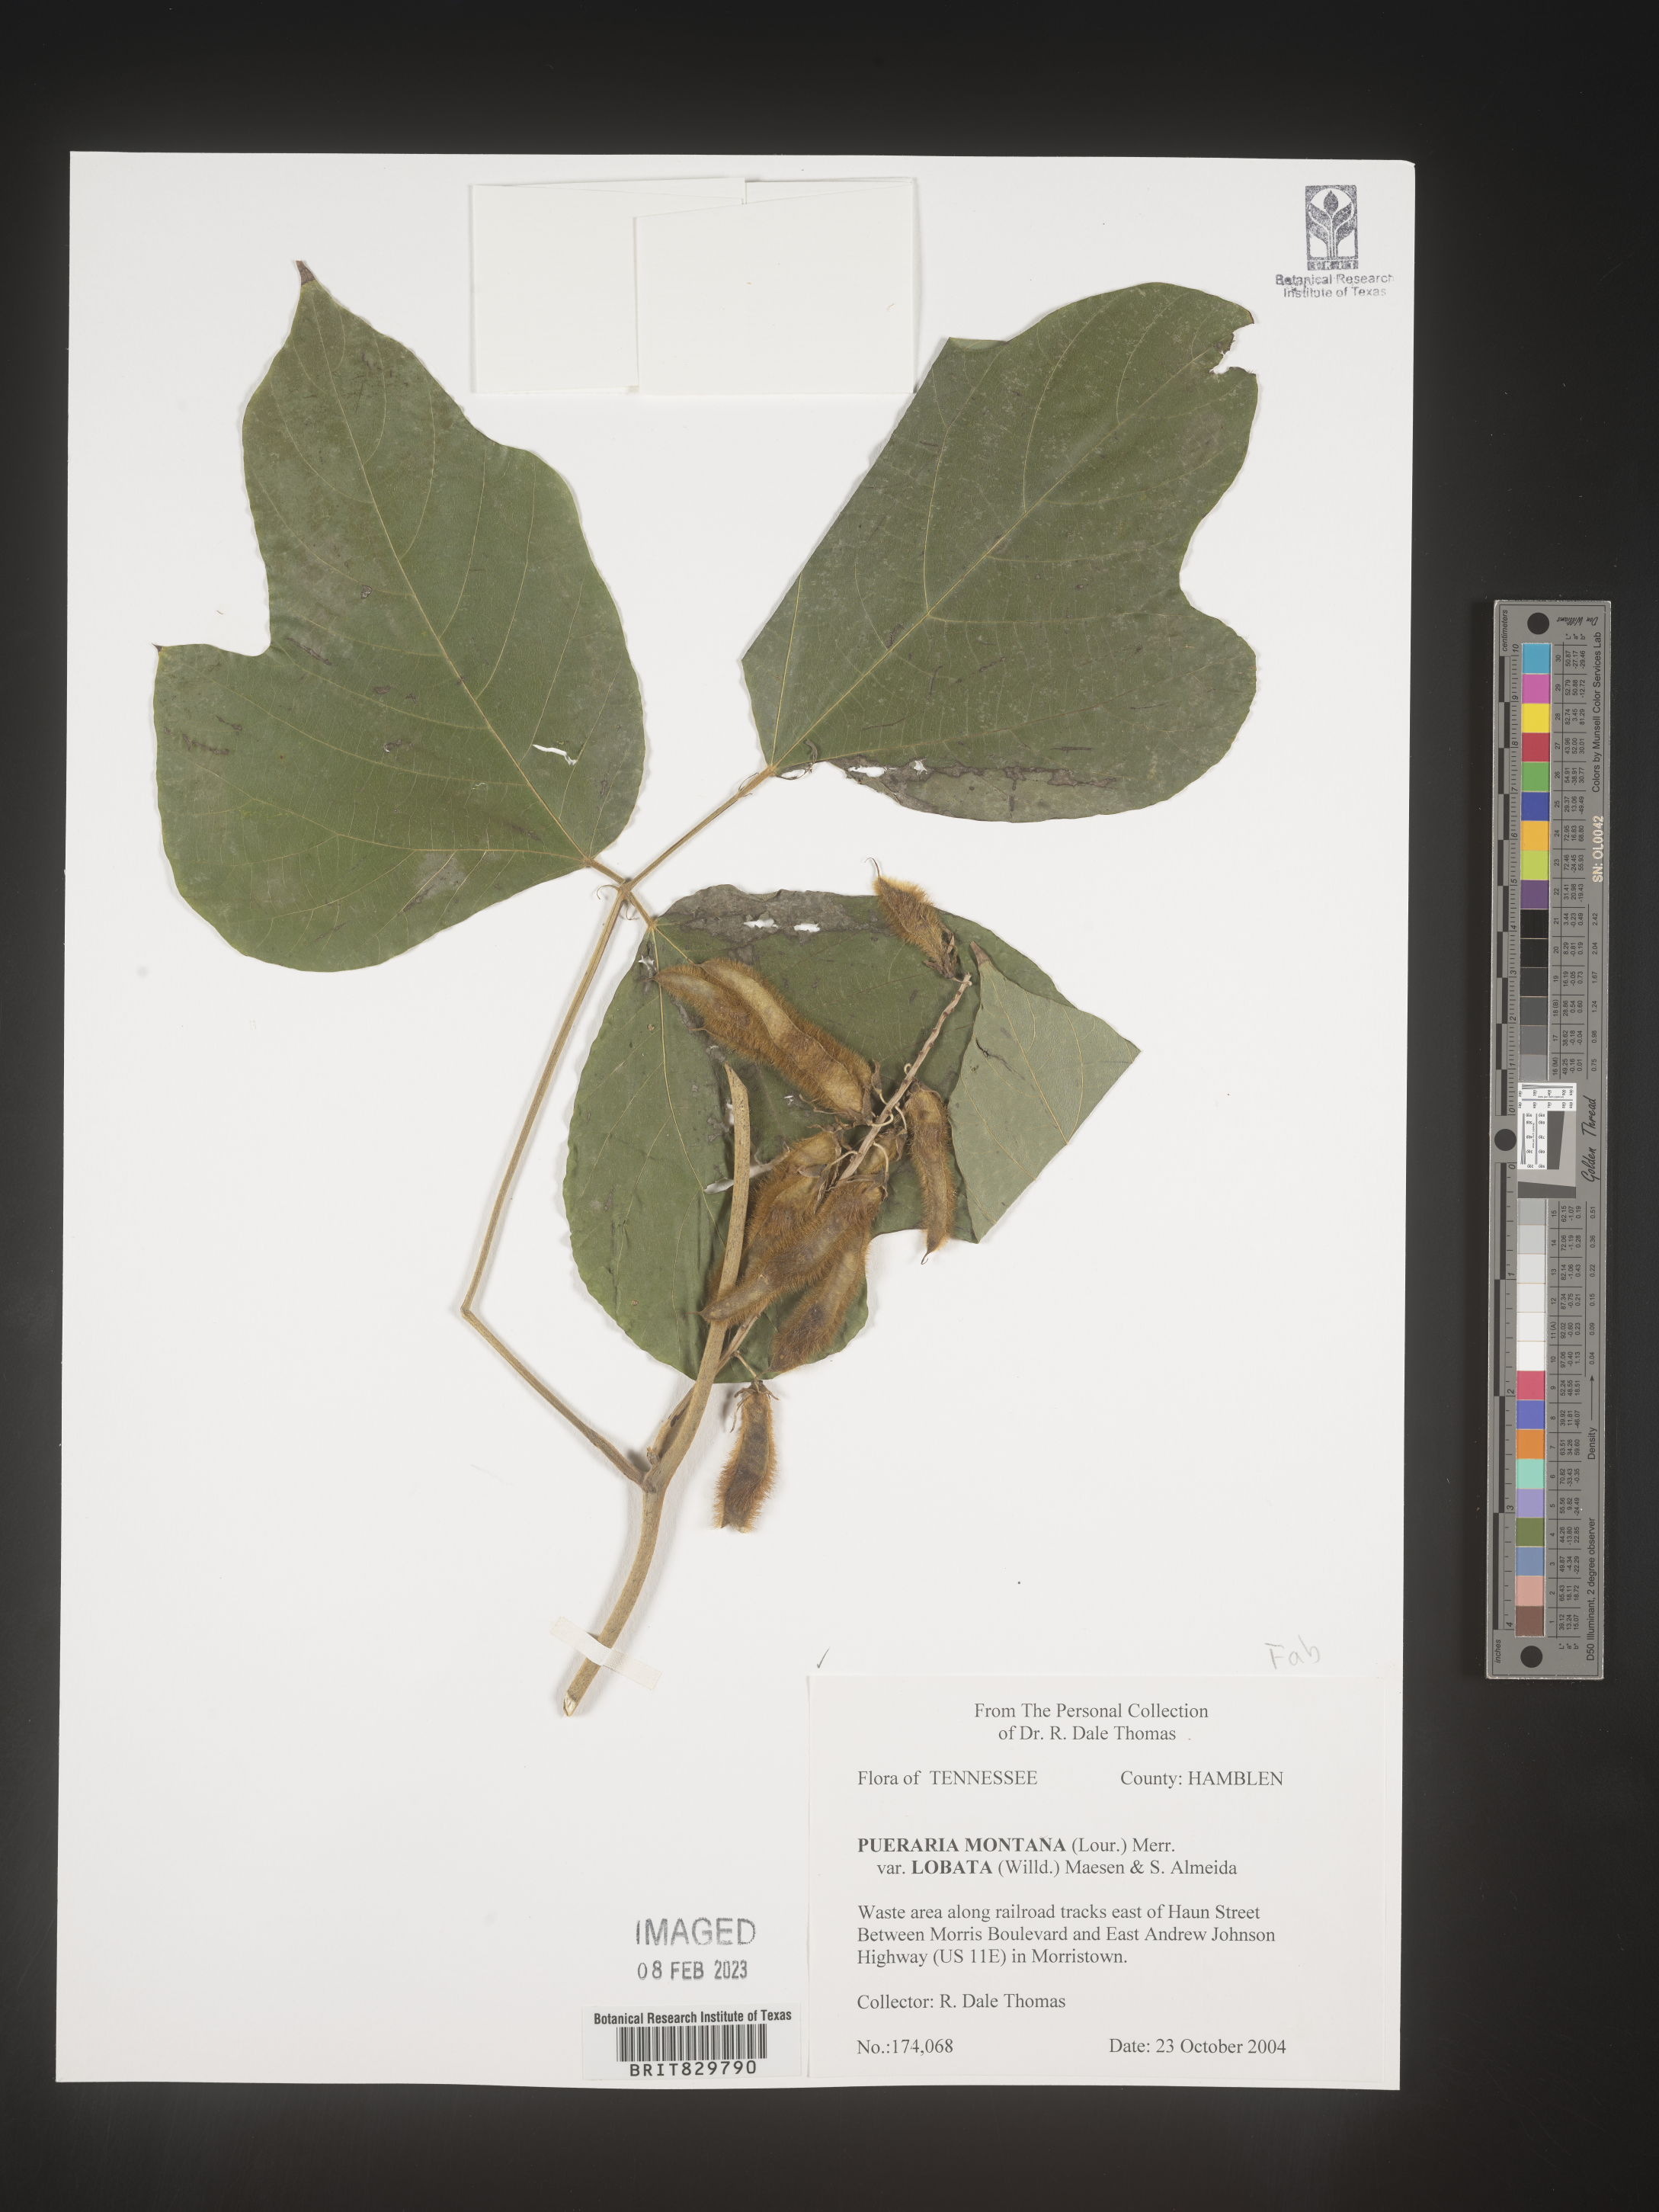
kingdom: Plantae
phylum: Tracheophyta
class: Magnoliopsida
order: Fabales
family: Fabaceae
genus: Pueraria
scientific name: Pueraria montana
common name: Kudzu
